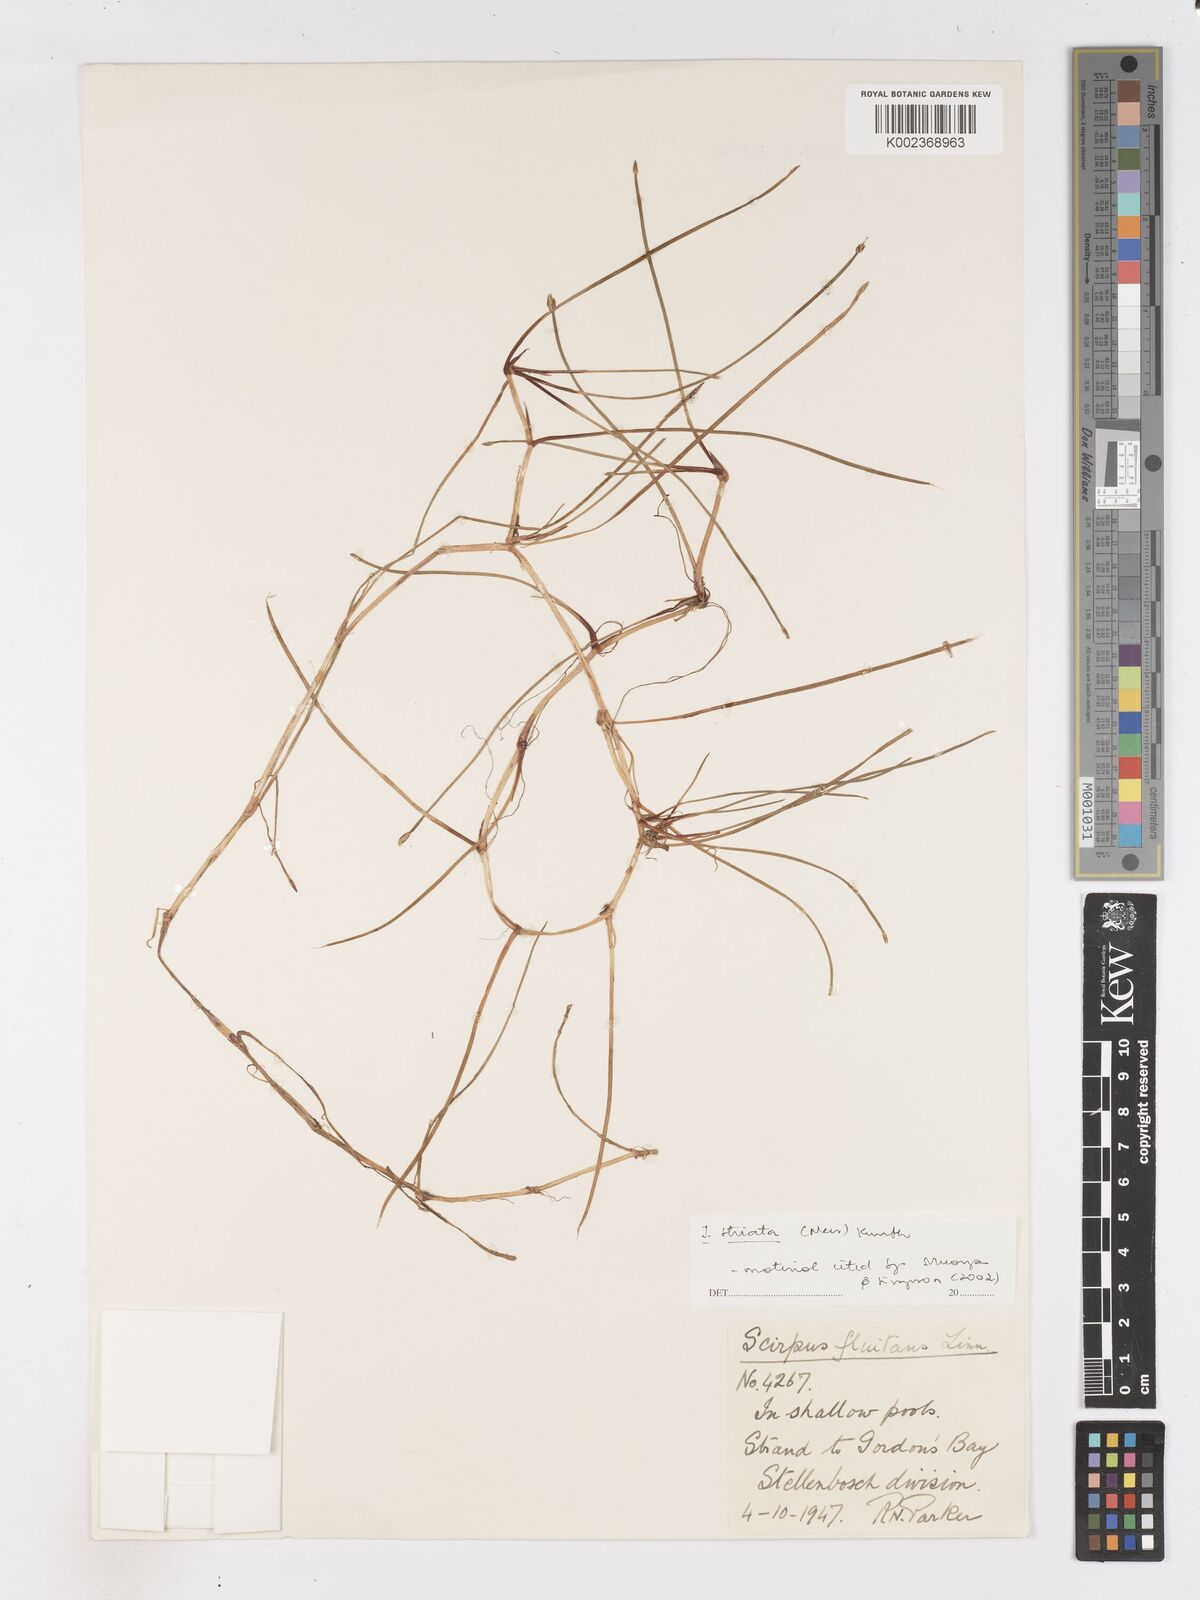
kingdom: Plantae
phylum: Tracheophyta
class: Liliopsida
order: Poales
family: Cyperaceae
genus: Isolepis
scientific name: Isolepis striata
